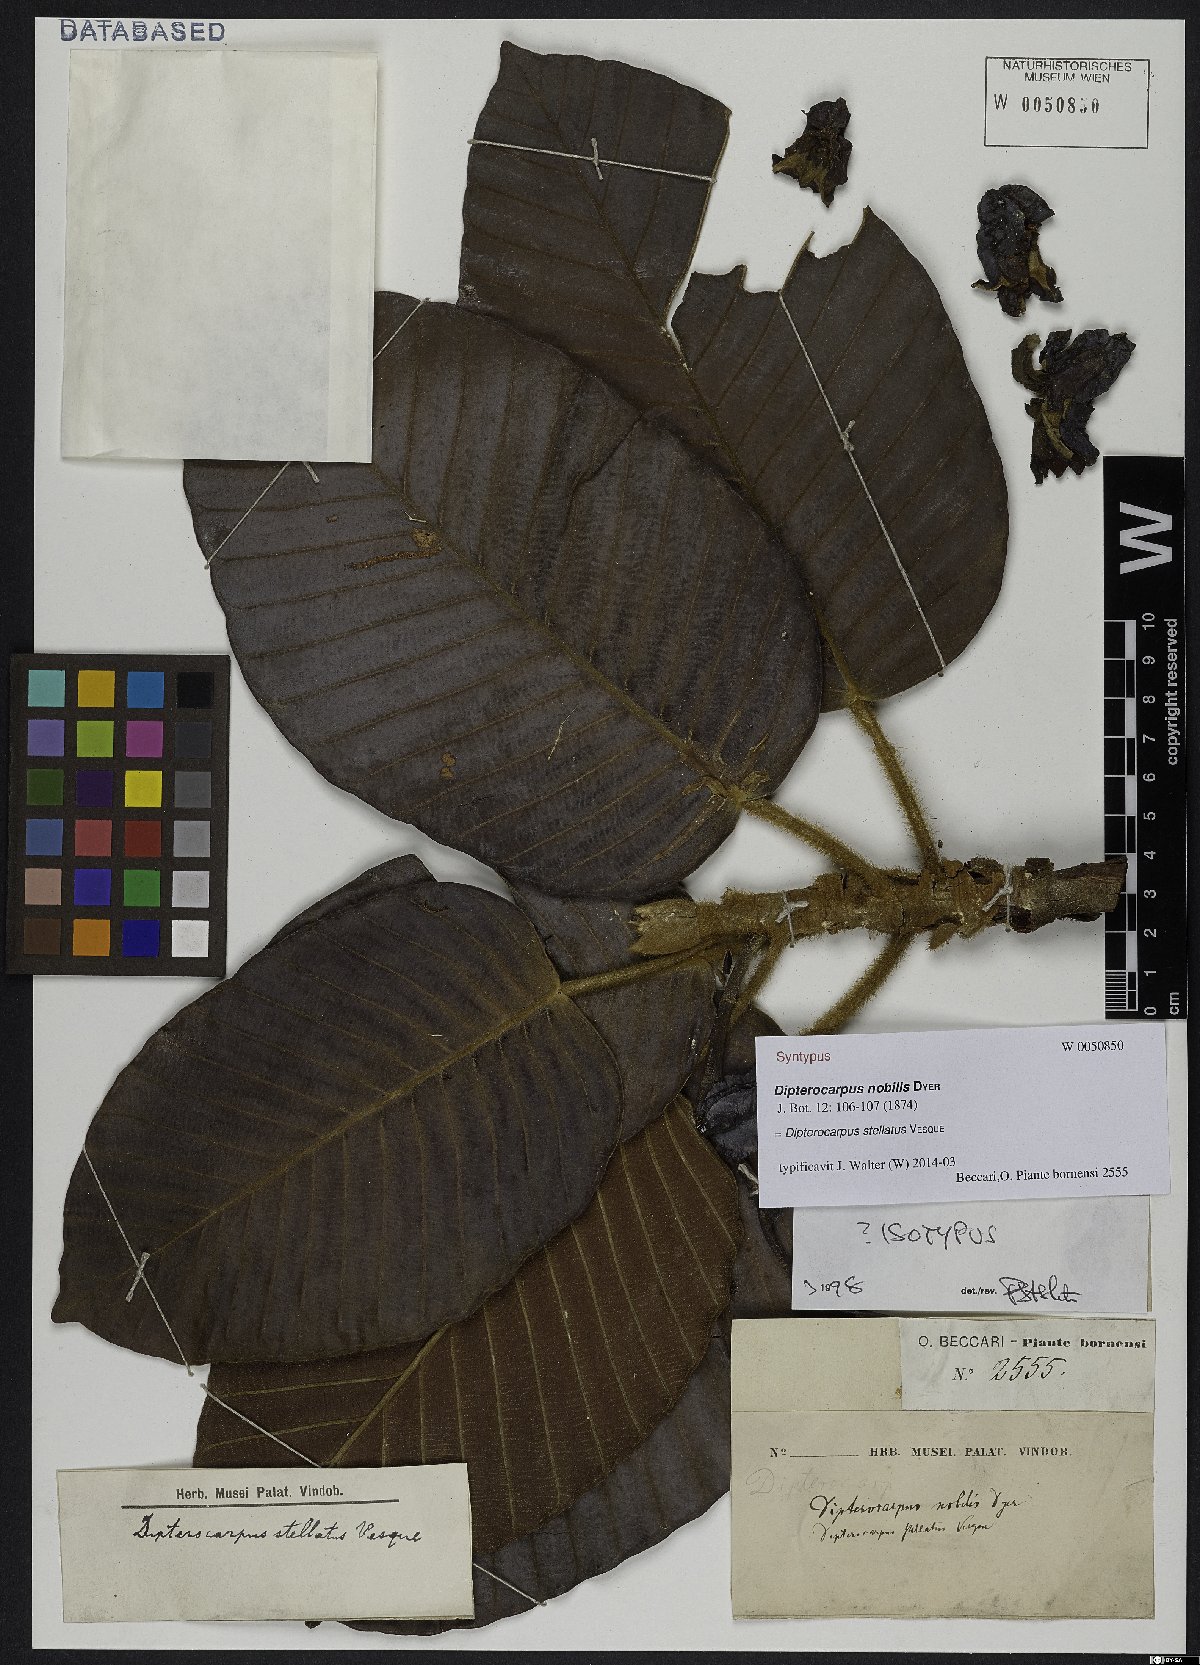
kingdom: Plantae
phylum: Tracheophyta
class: Magnoliopsida
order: Malvales
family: Dipterocarpaceae
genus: Dipterocarpus
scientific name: Dipterocarpus stellatus
